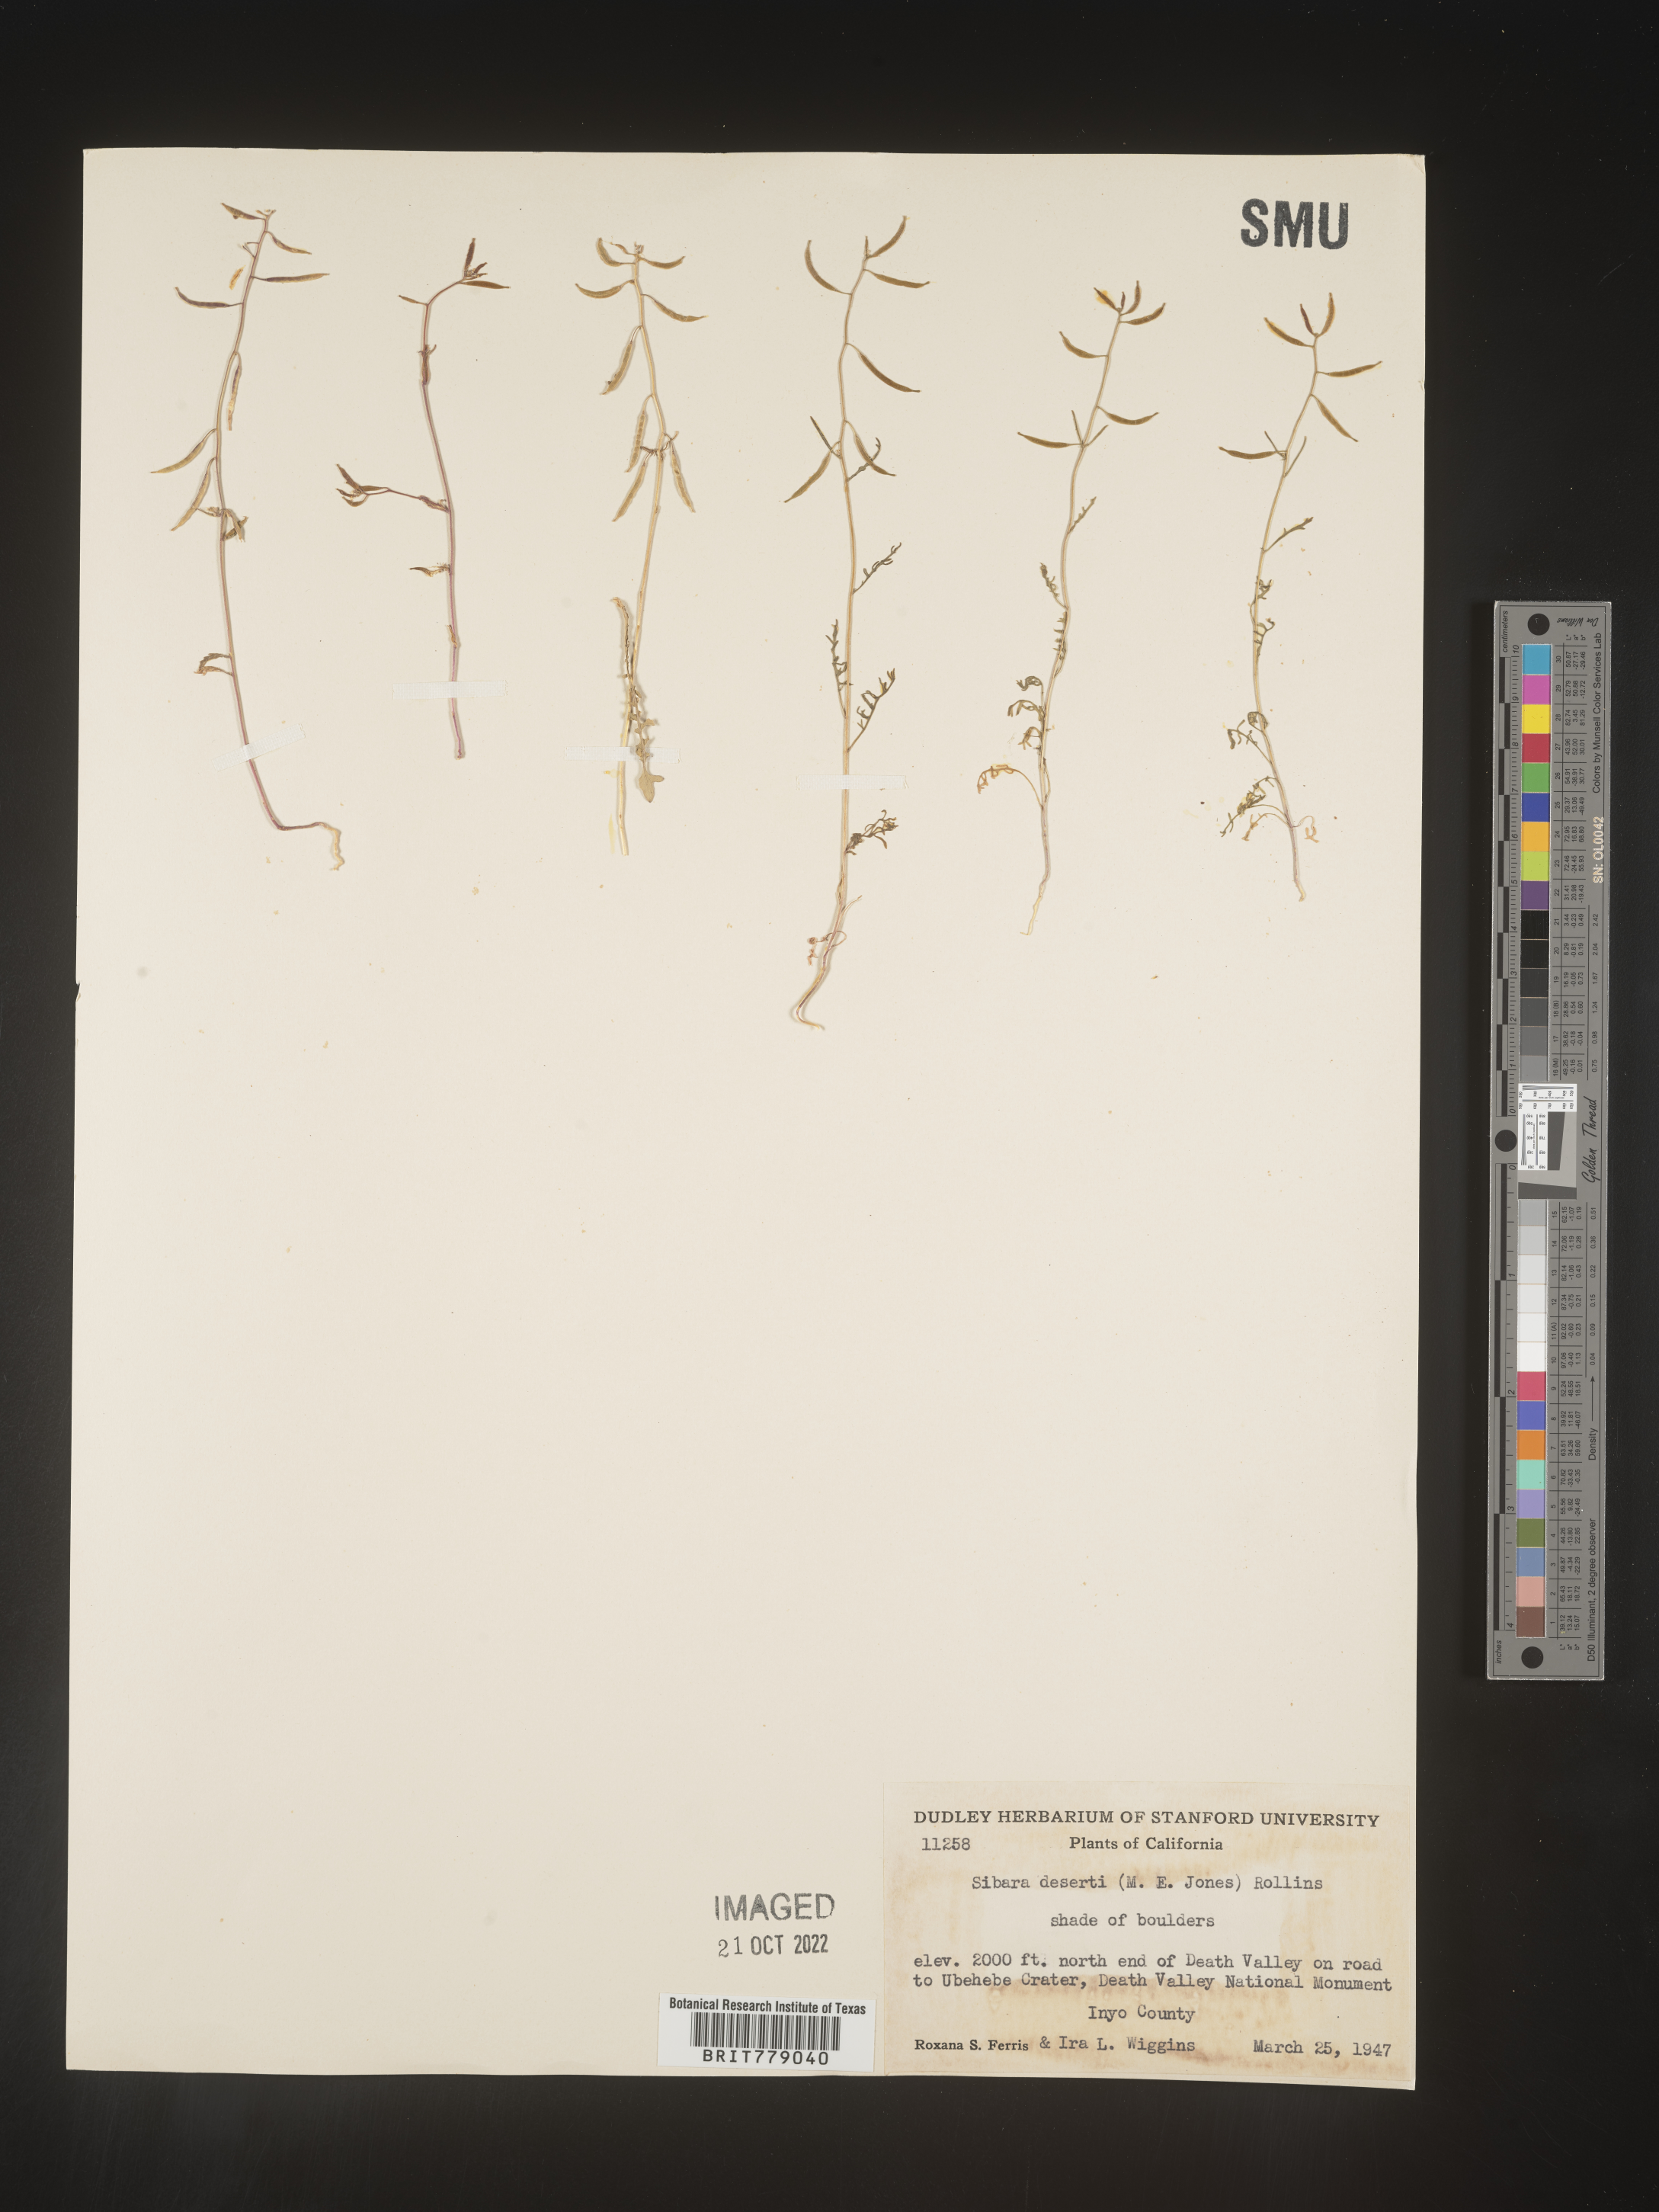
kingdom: Plantae
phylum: Tracheophyta
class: Magnoliopsida
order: Brassicales
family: Brassicaceae
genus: Sibara
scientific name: Sibara
